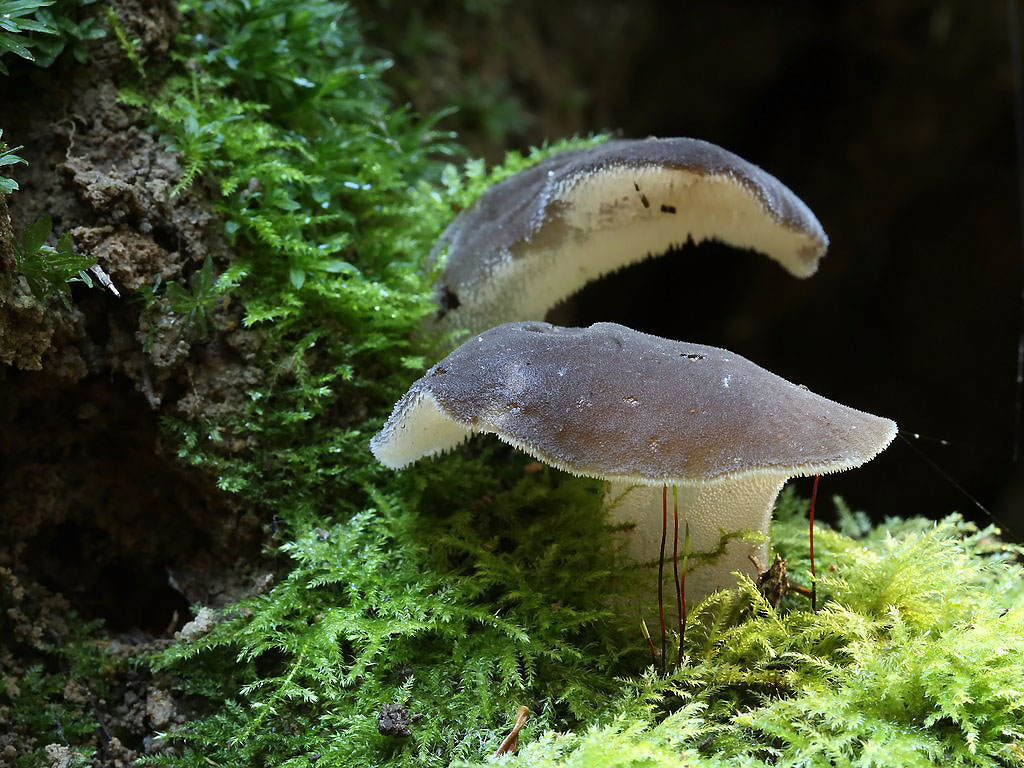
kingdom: Fungi
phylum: Basidiomycota
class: Agaricomycetes
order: Auriculariales
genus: Pseudohydnum
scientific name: Pseudohydnum gelatinosum
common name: bævretand
